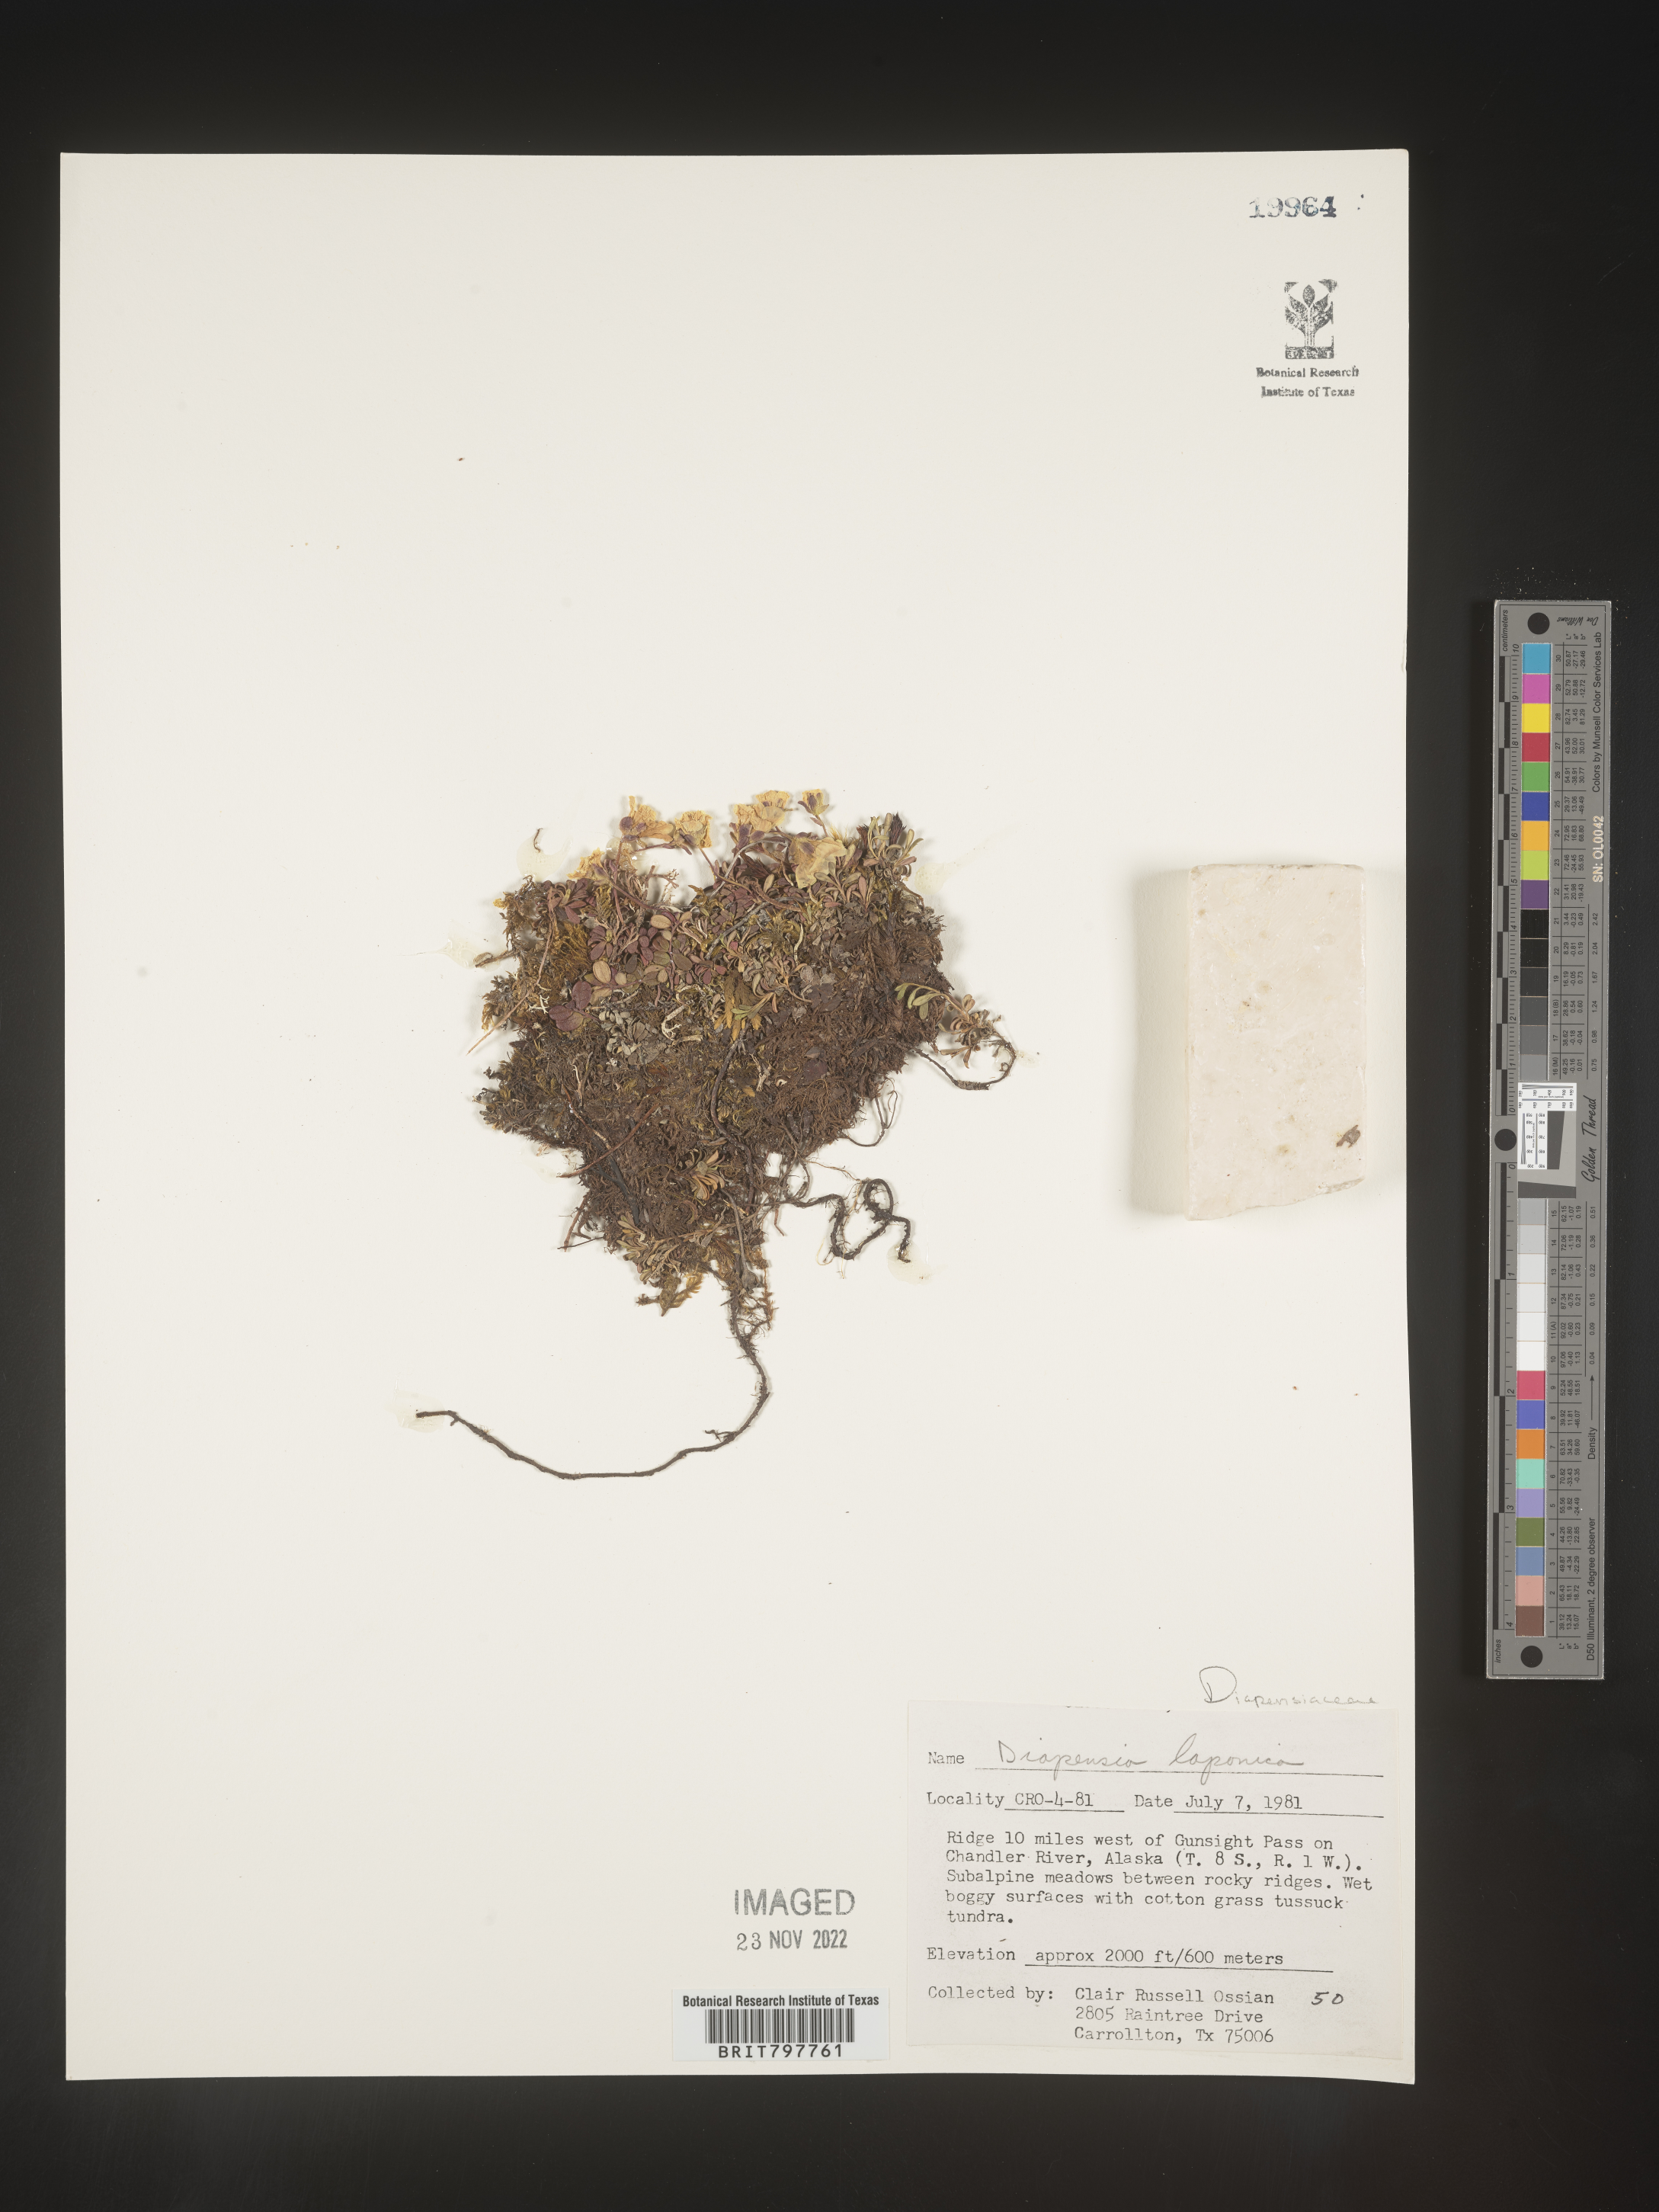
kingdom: Plantae
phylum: Tracheophyta
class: Magnoliopsida
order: Ericales
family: Diapensiaceae
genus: Diapensia
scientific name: Diapensia obovata
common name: Alaska diapensia
